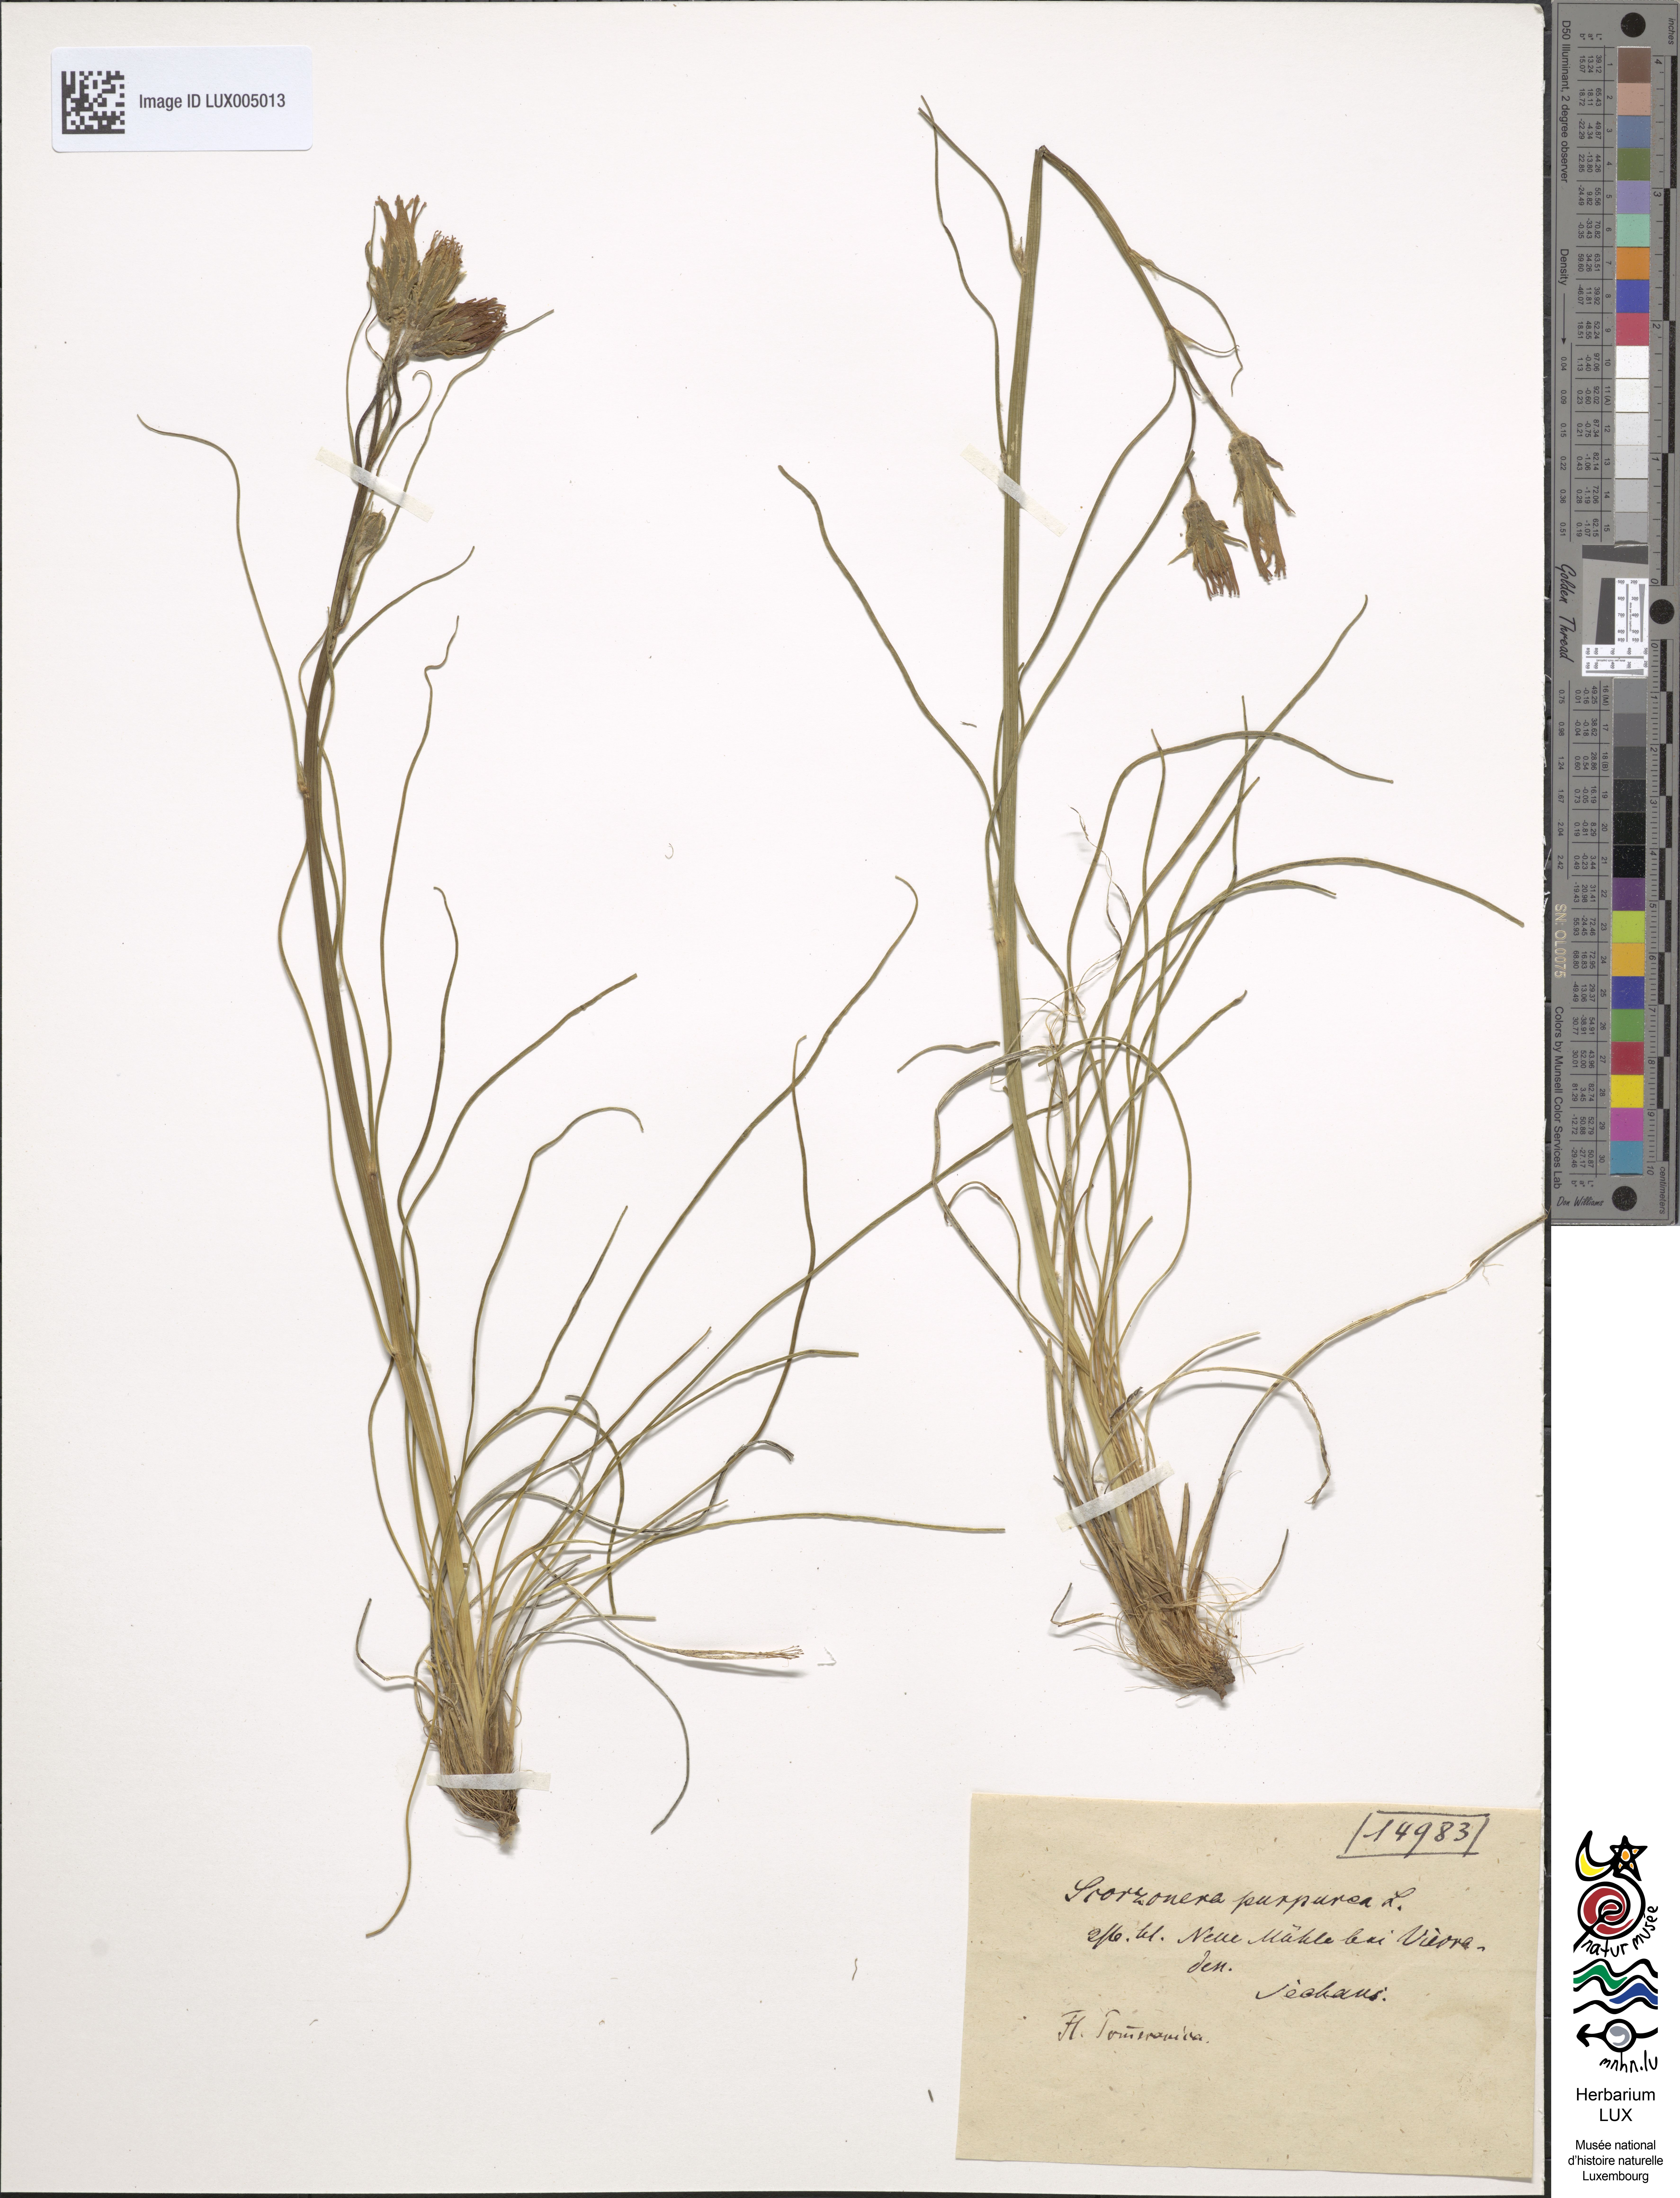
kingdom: Plantae
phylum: Tracheophyta
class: Magnoliopsida
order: Asterales
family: Asteraceae
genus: Scorzonera
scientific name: Scorzonera purpurea
